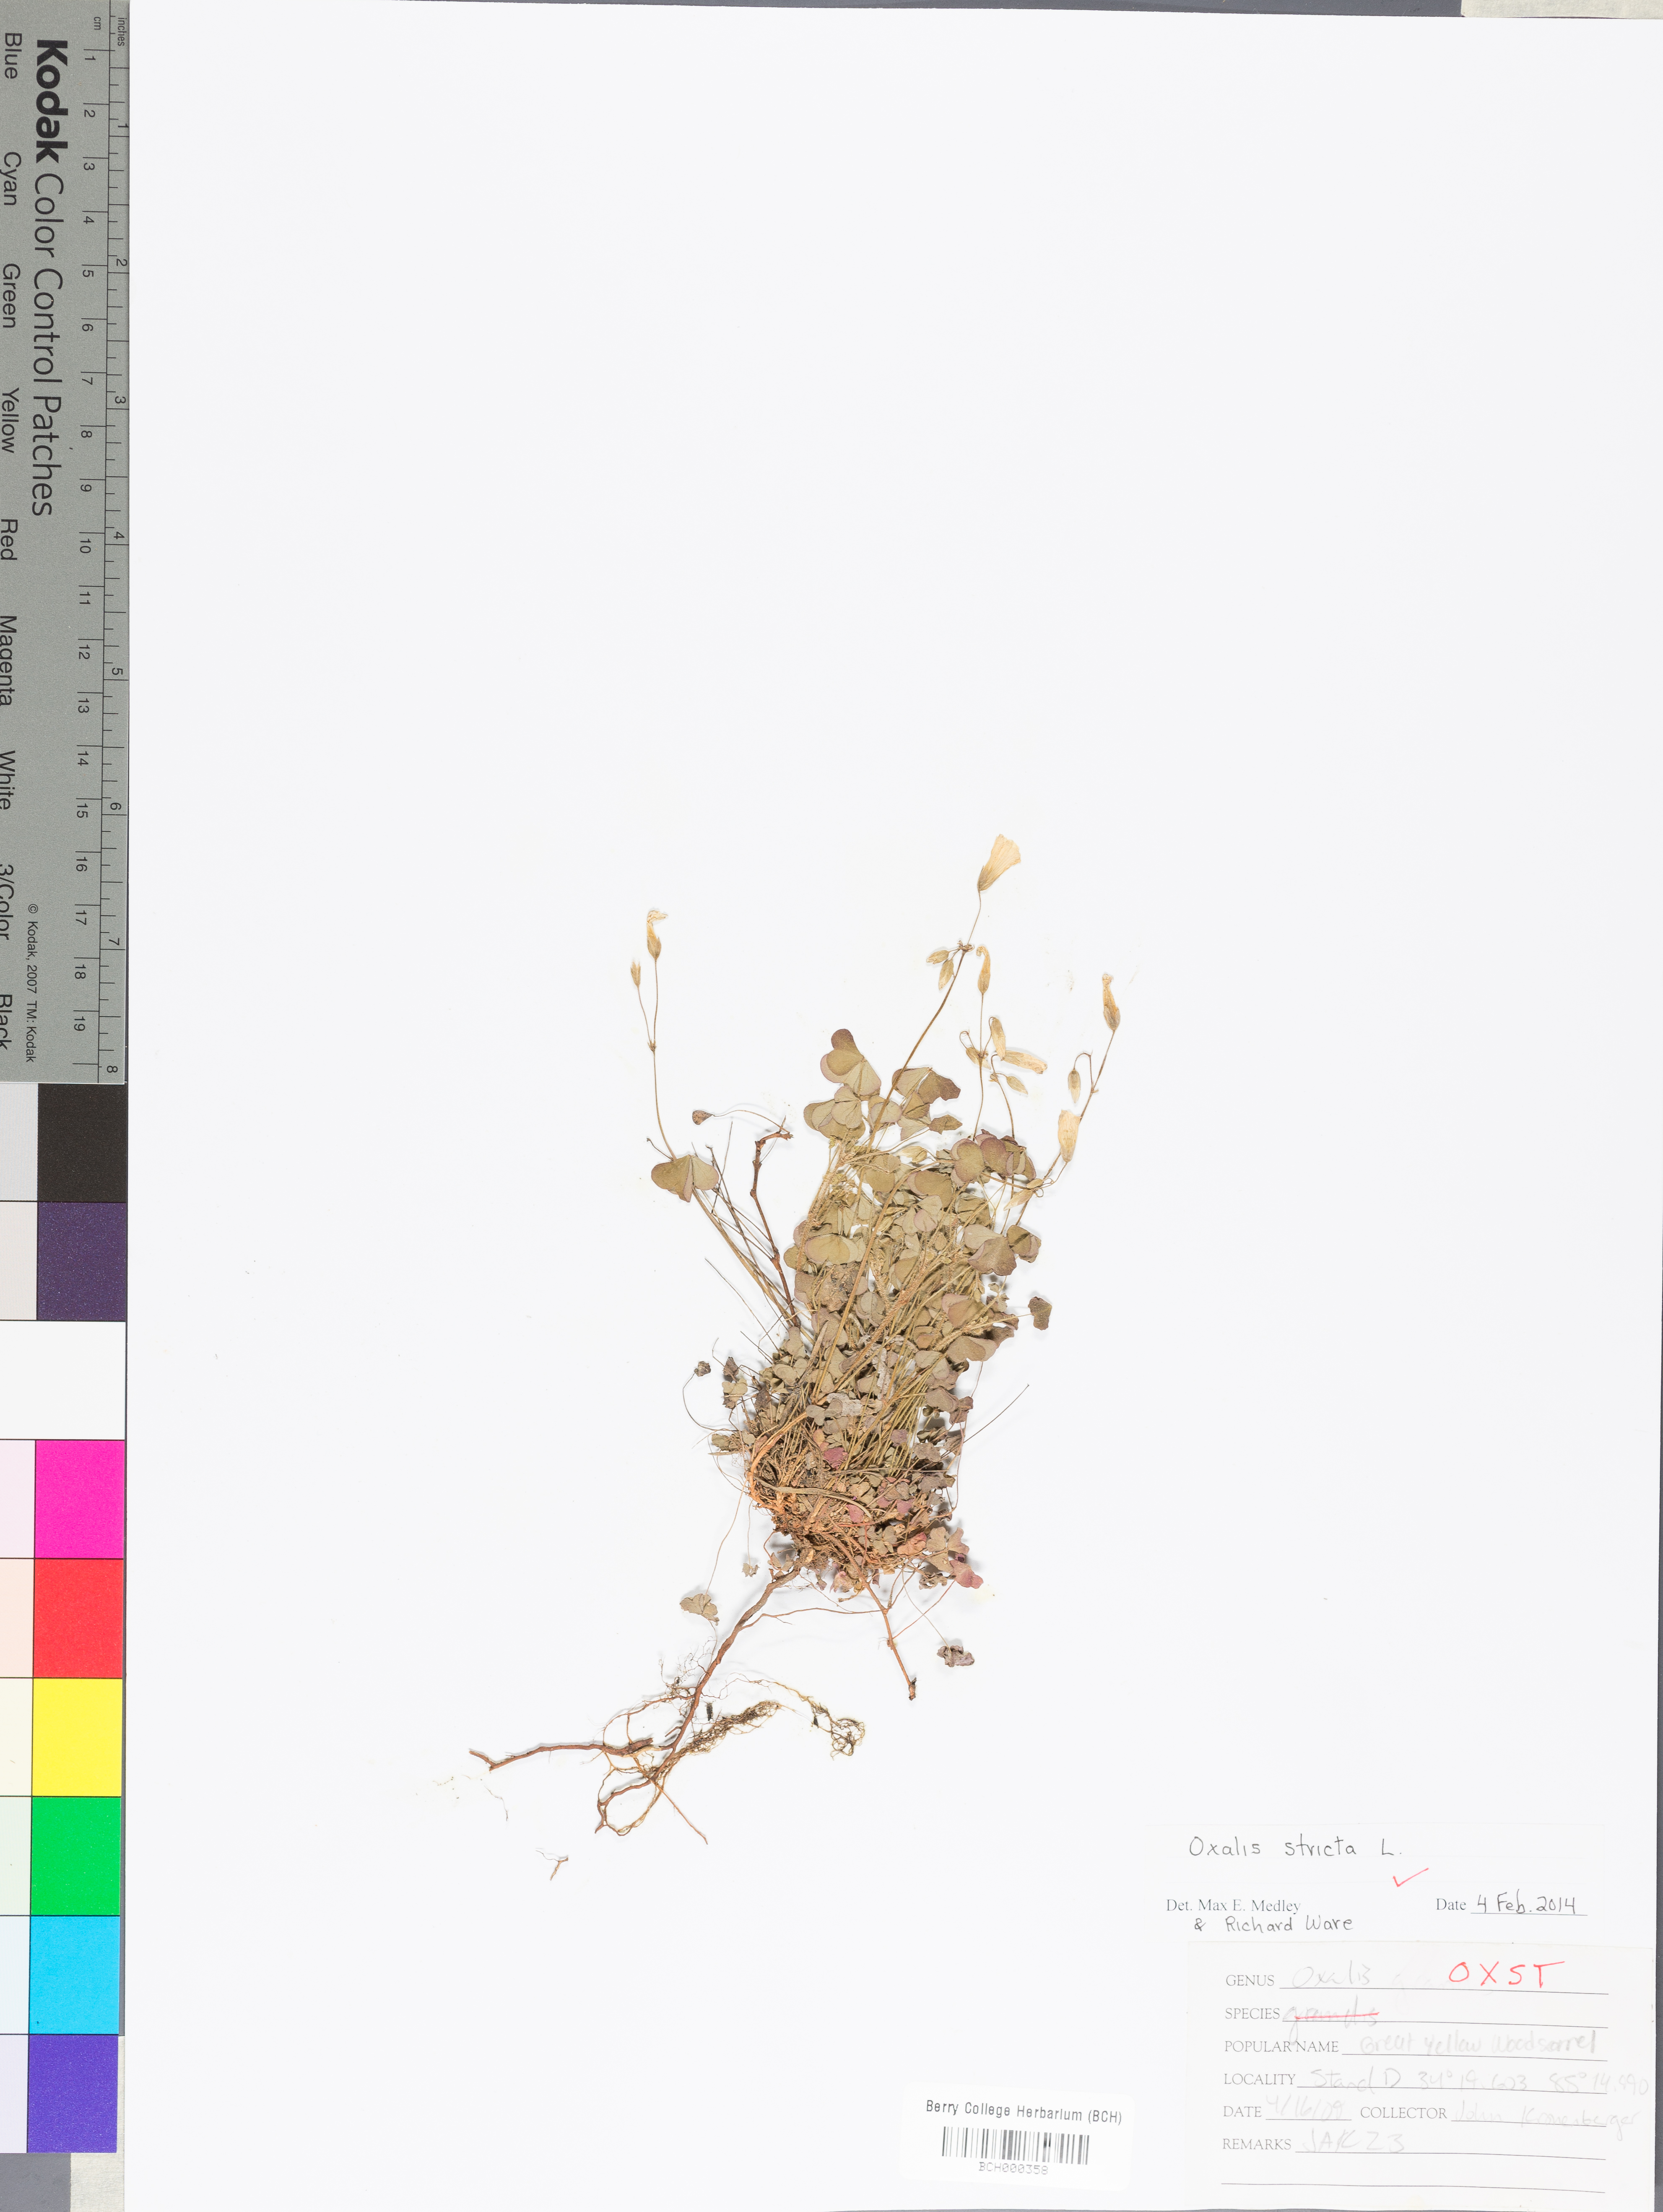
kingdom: Plantae
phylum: Tracheophyta
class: Magnoliopsida
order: Oxalidales
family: Oxalidaceae
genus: Oxalis
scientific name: Oxalis stricta
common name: Upright yellow-sorrel
